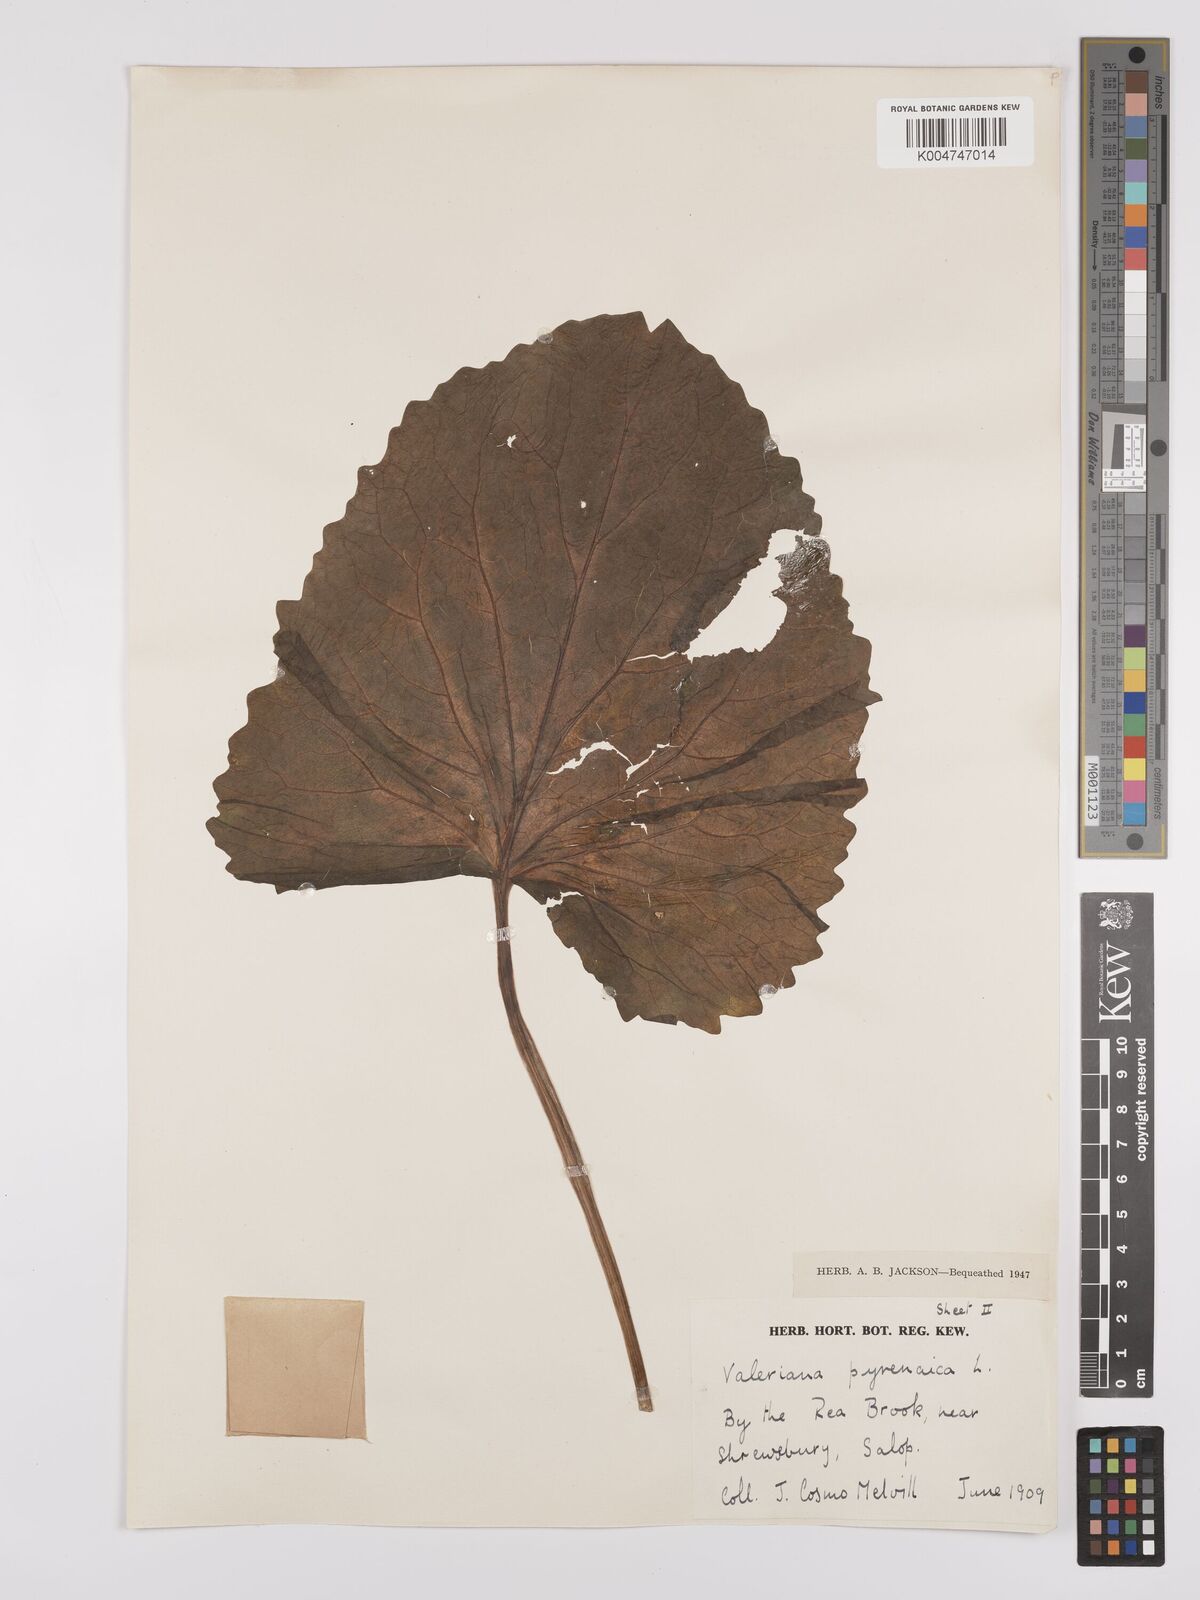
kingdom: Plantae
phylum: Tracheophyta
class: Magnoliopsida
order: Dipsacales
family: Caprifoliaceae
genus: Valeriana
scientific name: Valeriana pyrenaica
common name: Pyrenean valerian
